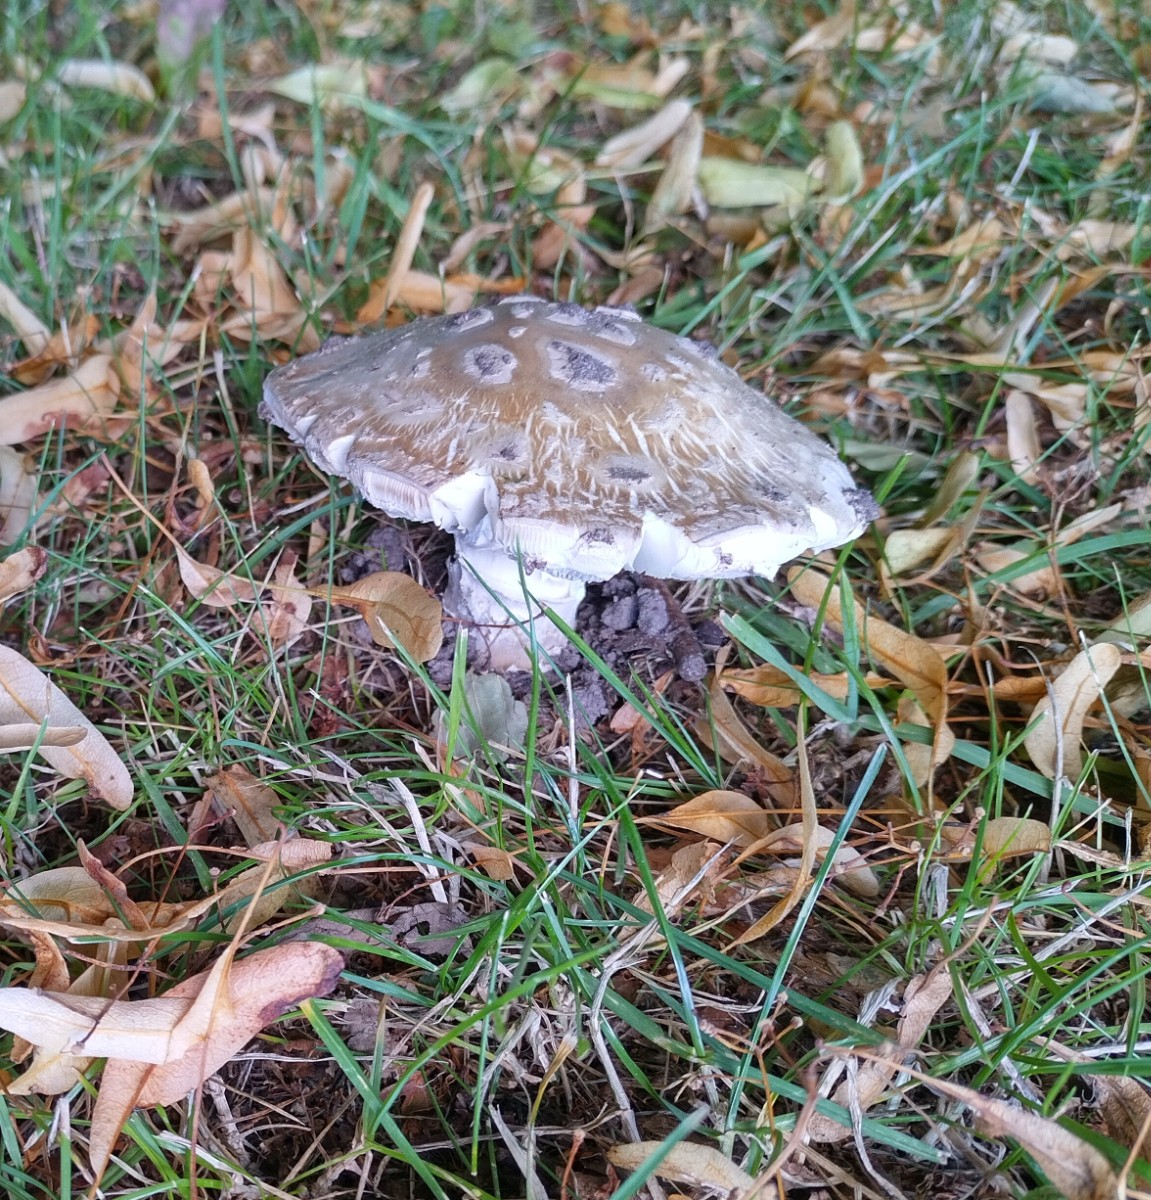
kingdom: Fungi
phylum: Basidiomycota
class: Agaricomycetes
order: Agaricales
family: Amanitaceae
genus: Amanita
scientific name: Amanita
